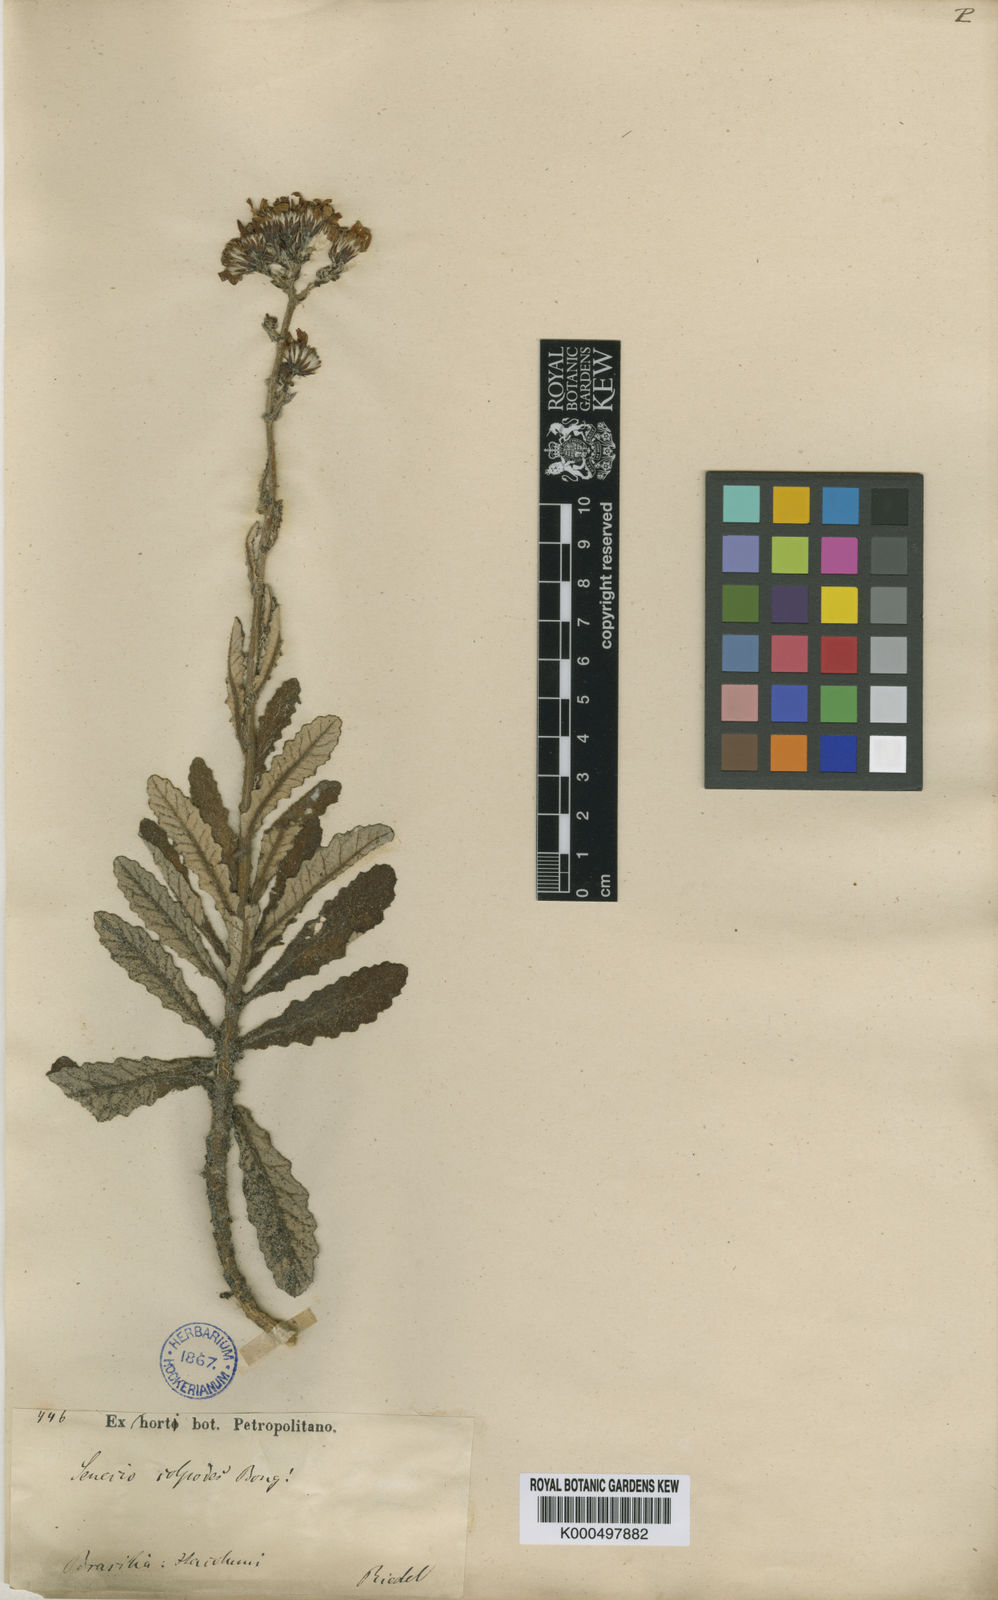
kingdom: Plantae
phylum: Tracheophyta
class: Magnoliopsida
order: Asterales
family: Asteraceae
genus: Senecio
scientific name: Senecio colpodes
